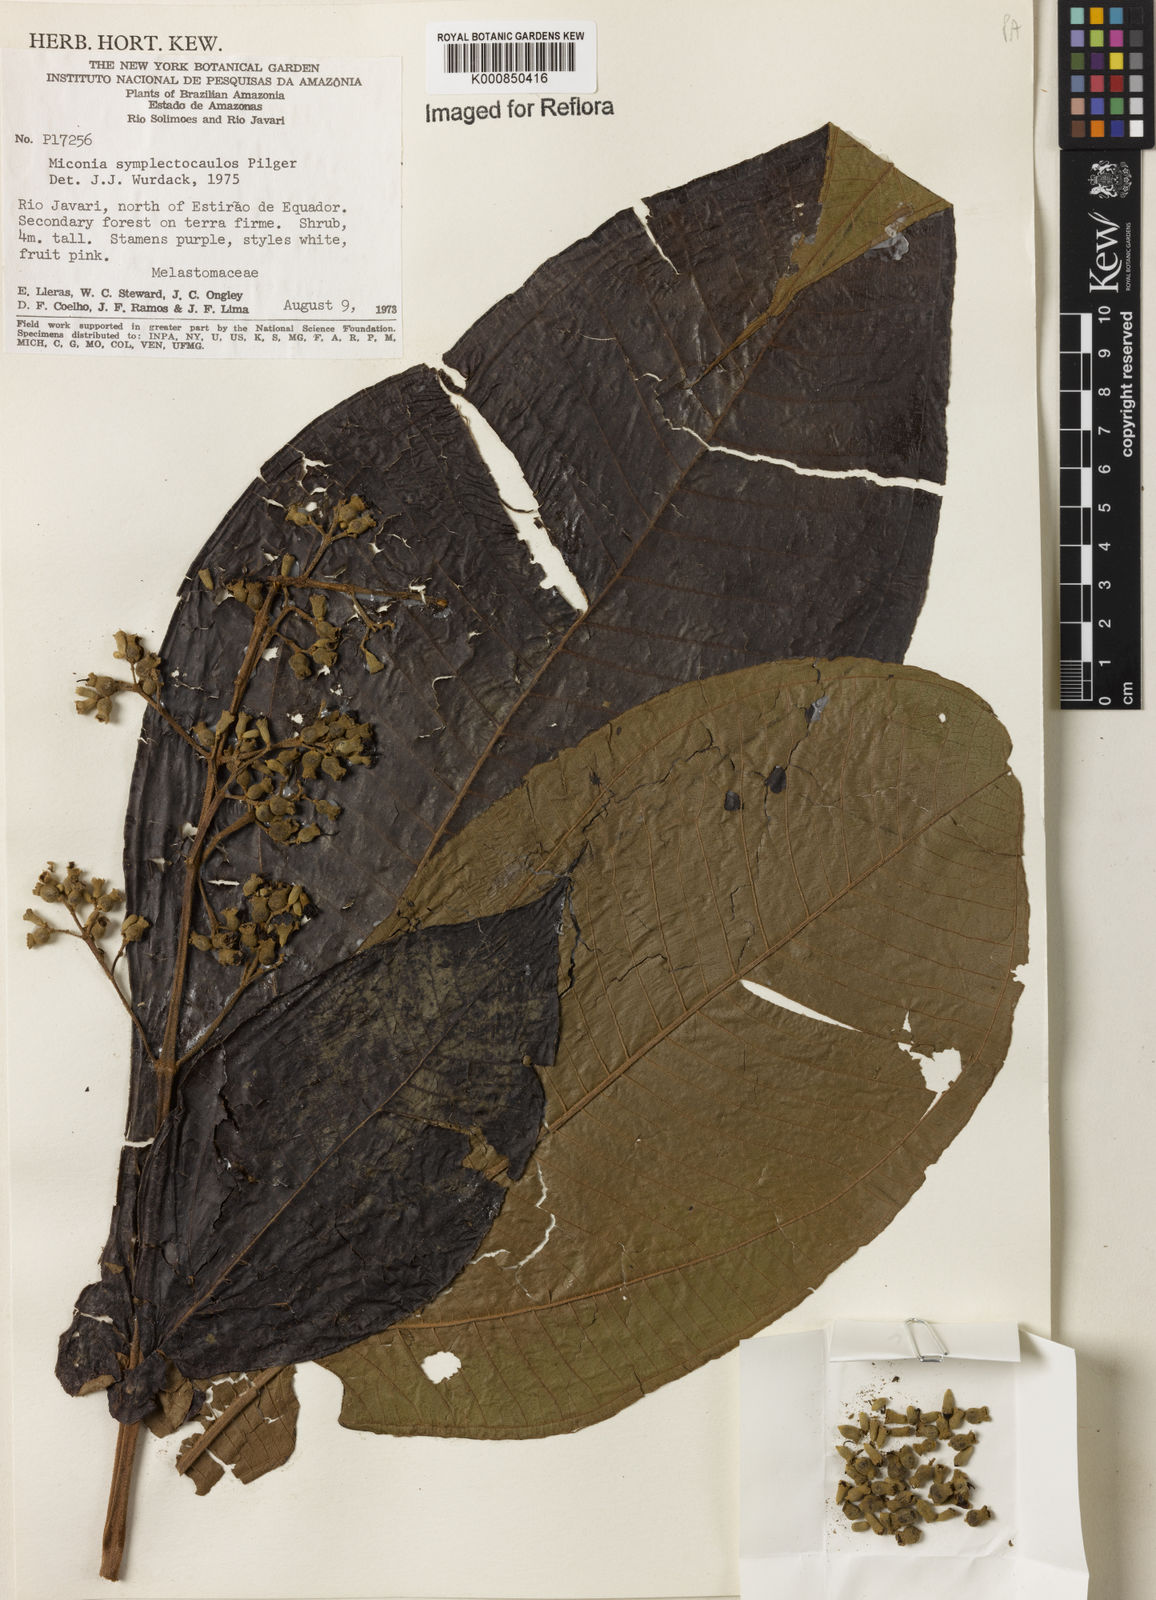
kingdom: Plantae
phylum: Tracheophyta
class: Magnoliopsida
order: Myrtales
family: Melastomataceae
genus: Miconia
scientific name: Miconia symplectocaulos
